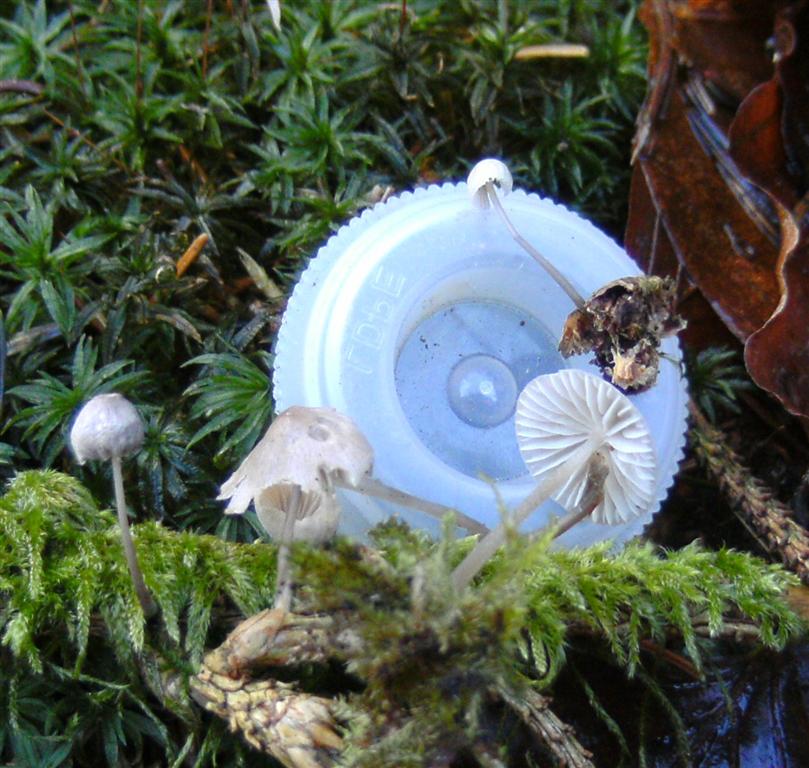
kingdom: Fungi
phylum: Basidiomycota
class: Agaricomycetes
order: Agaricales
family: Mycenaceae
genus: Mycena
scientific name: Mycena metata
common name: rødlig huesvamp
